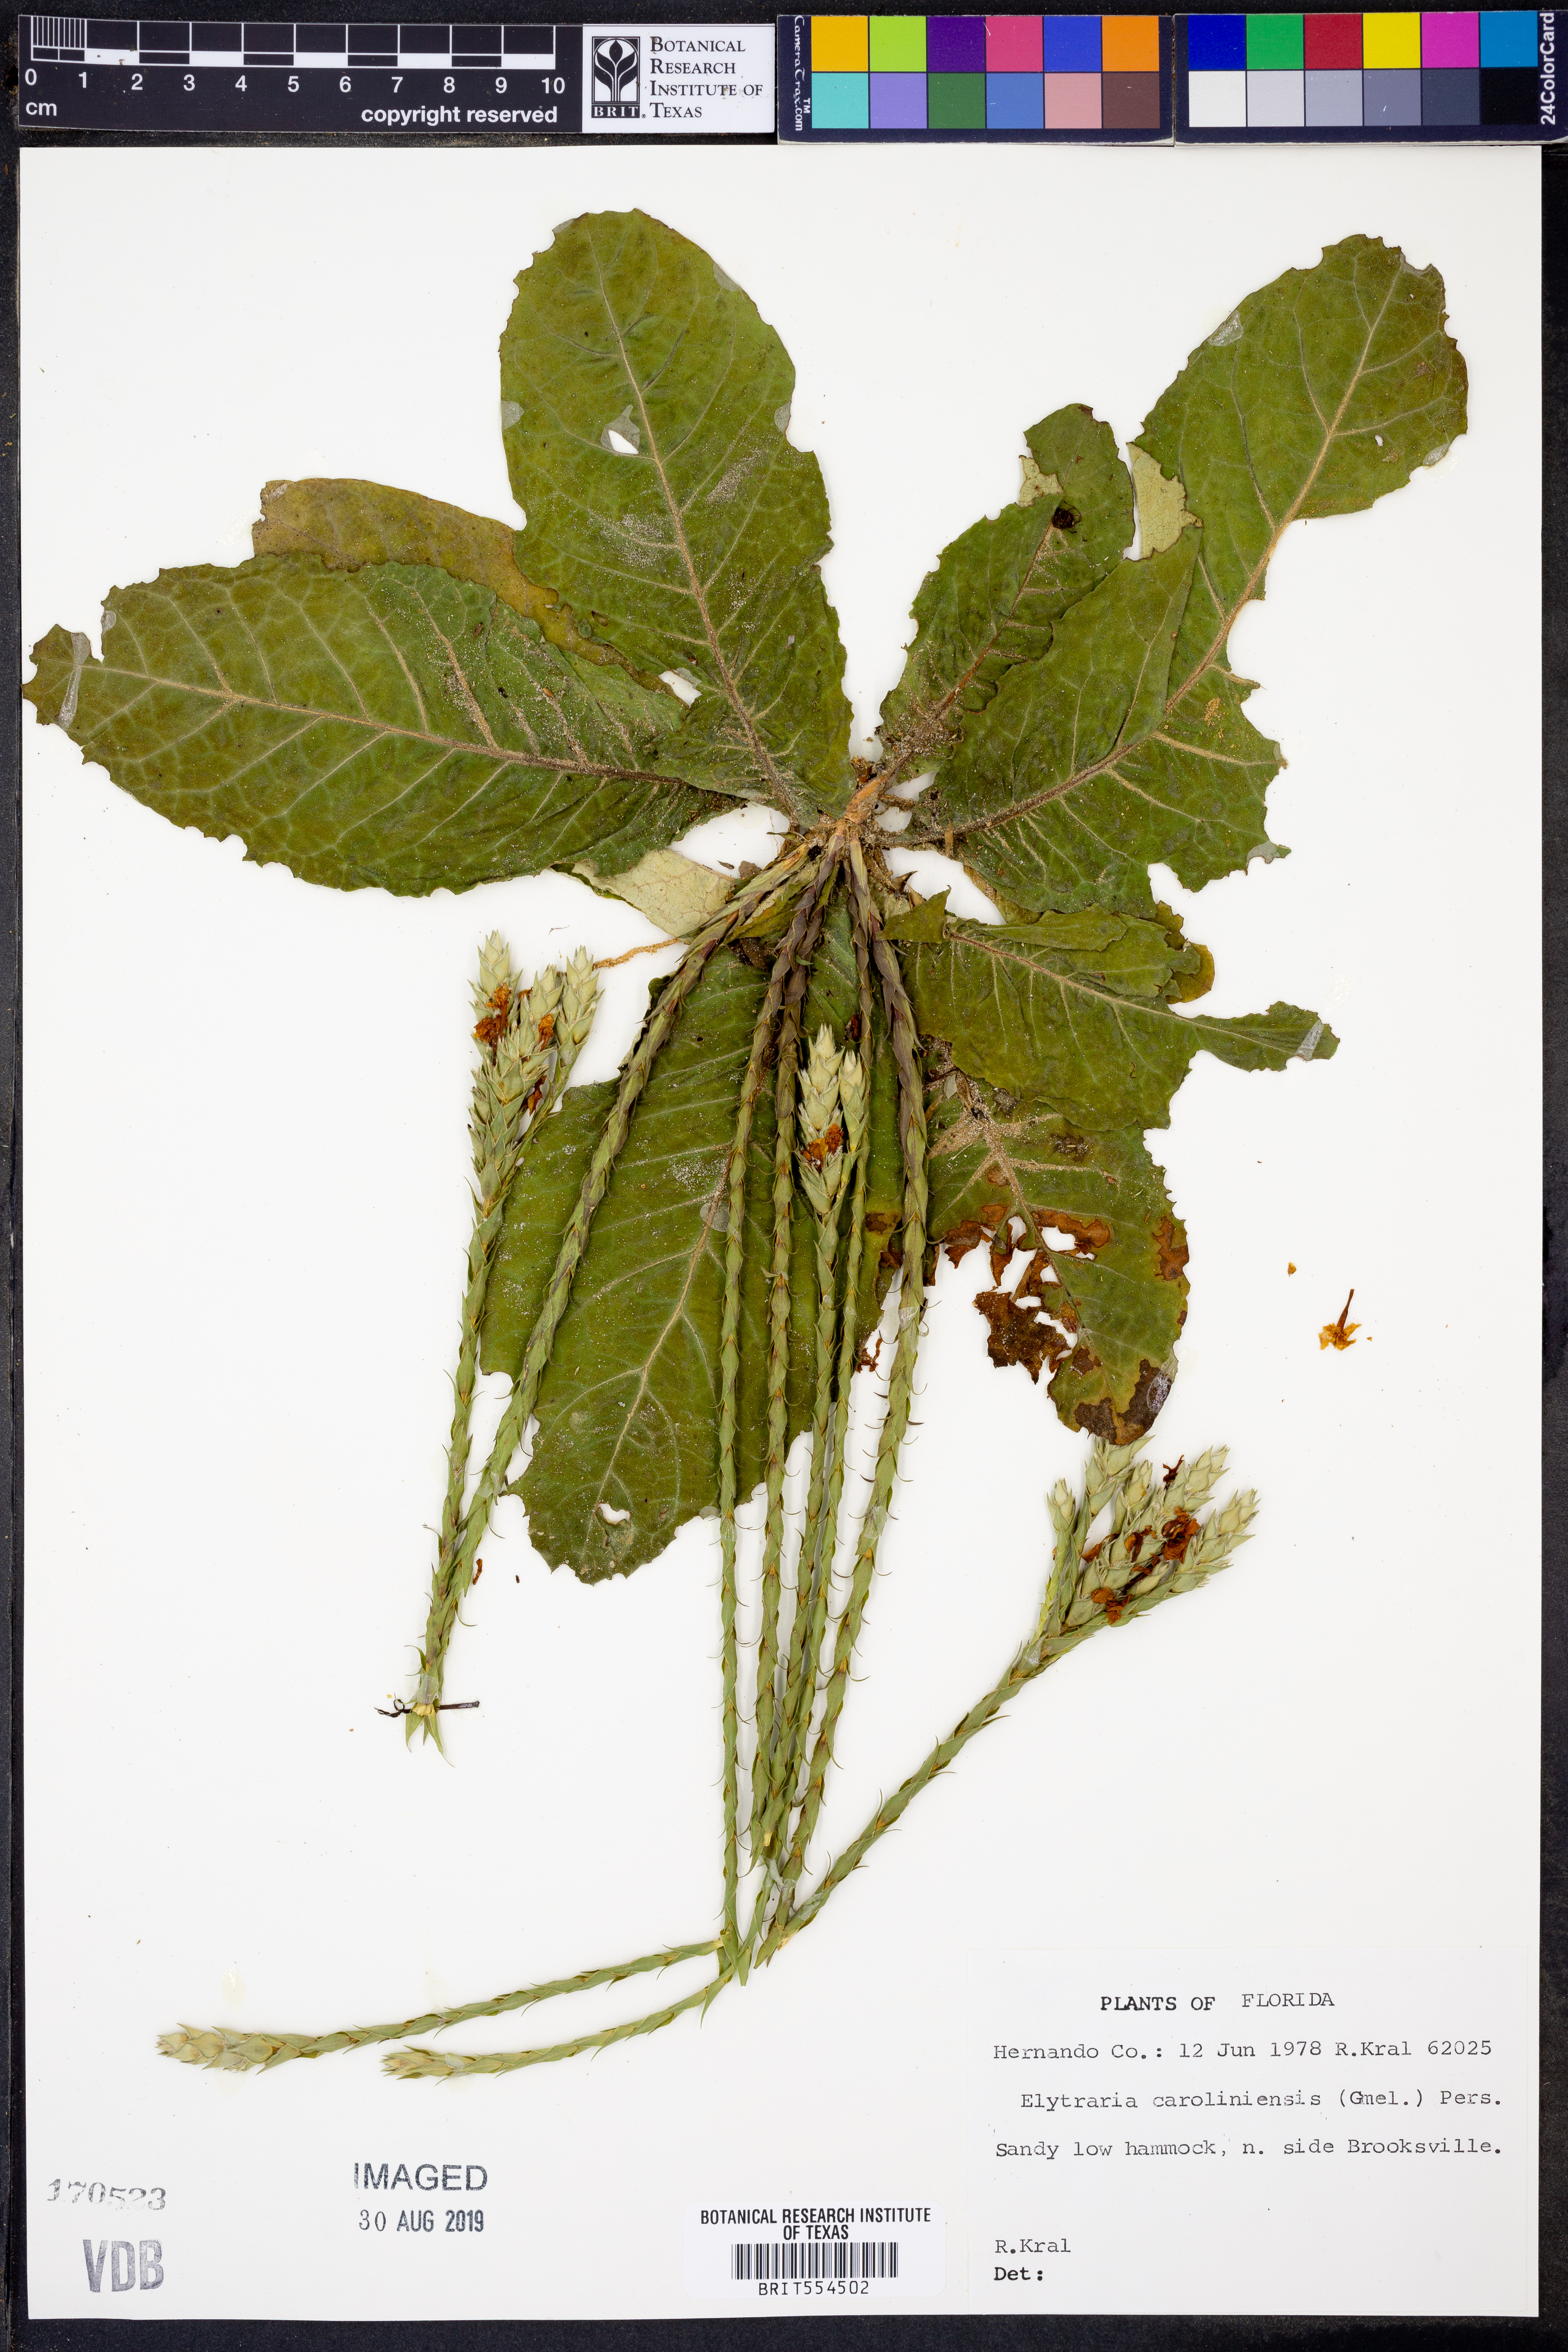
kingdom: Plantae
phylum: Tracheophyta
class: Magnoliopsida
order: Lamiales
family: Acanthaceae
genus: Elytraria
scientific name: Elytraria caroliniensis
